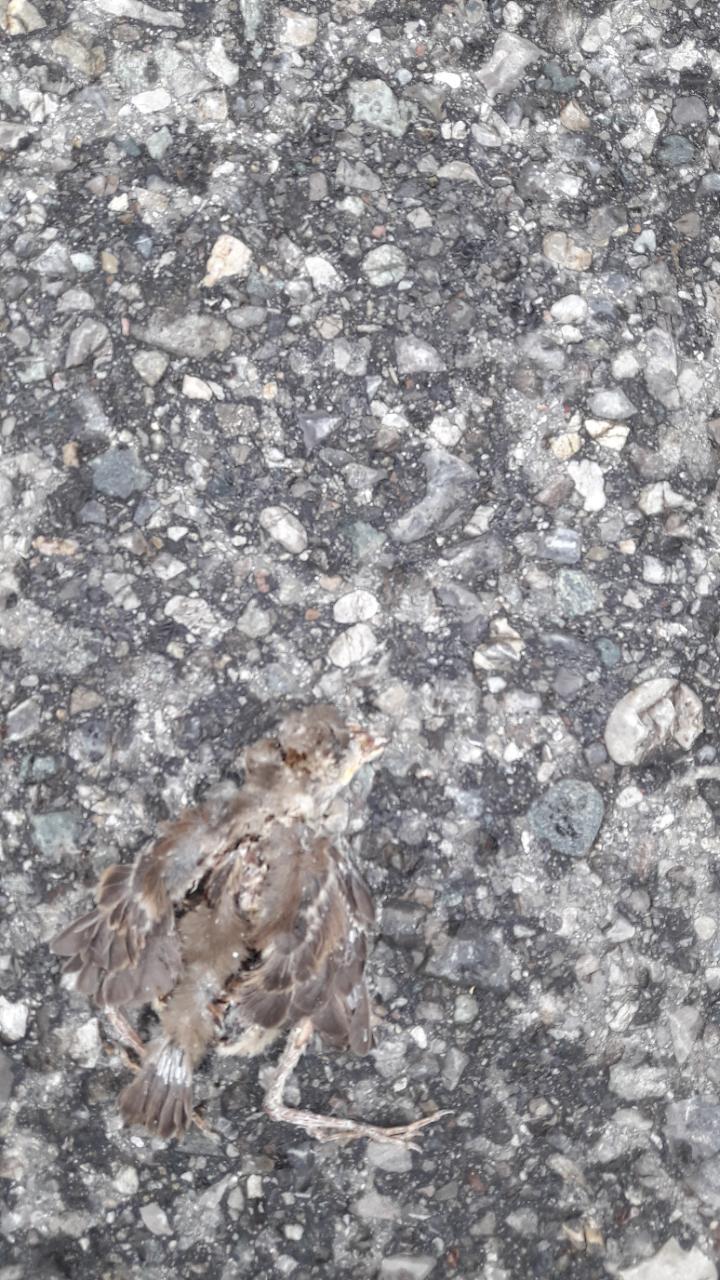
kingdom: Animalia
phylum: Chordata
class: Aves
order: Passeriformes
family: Passeridae
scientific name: Passeridae
